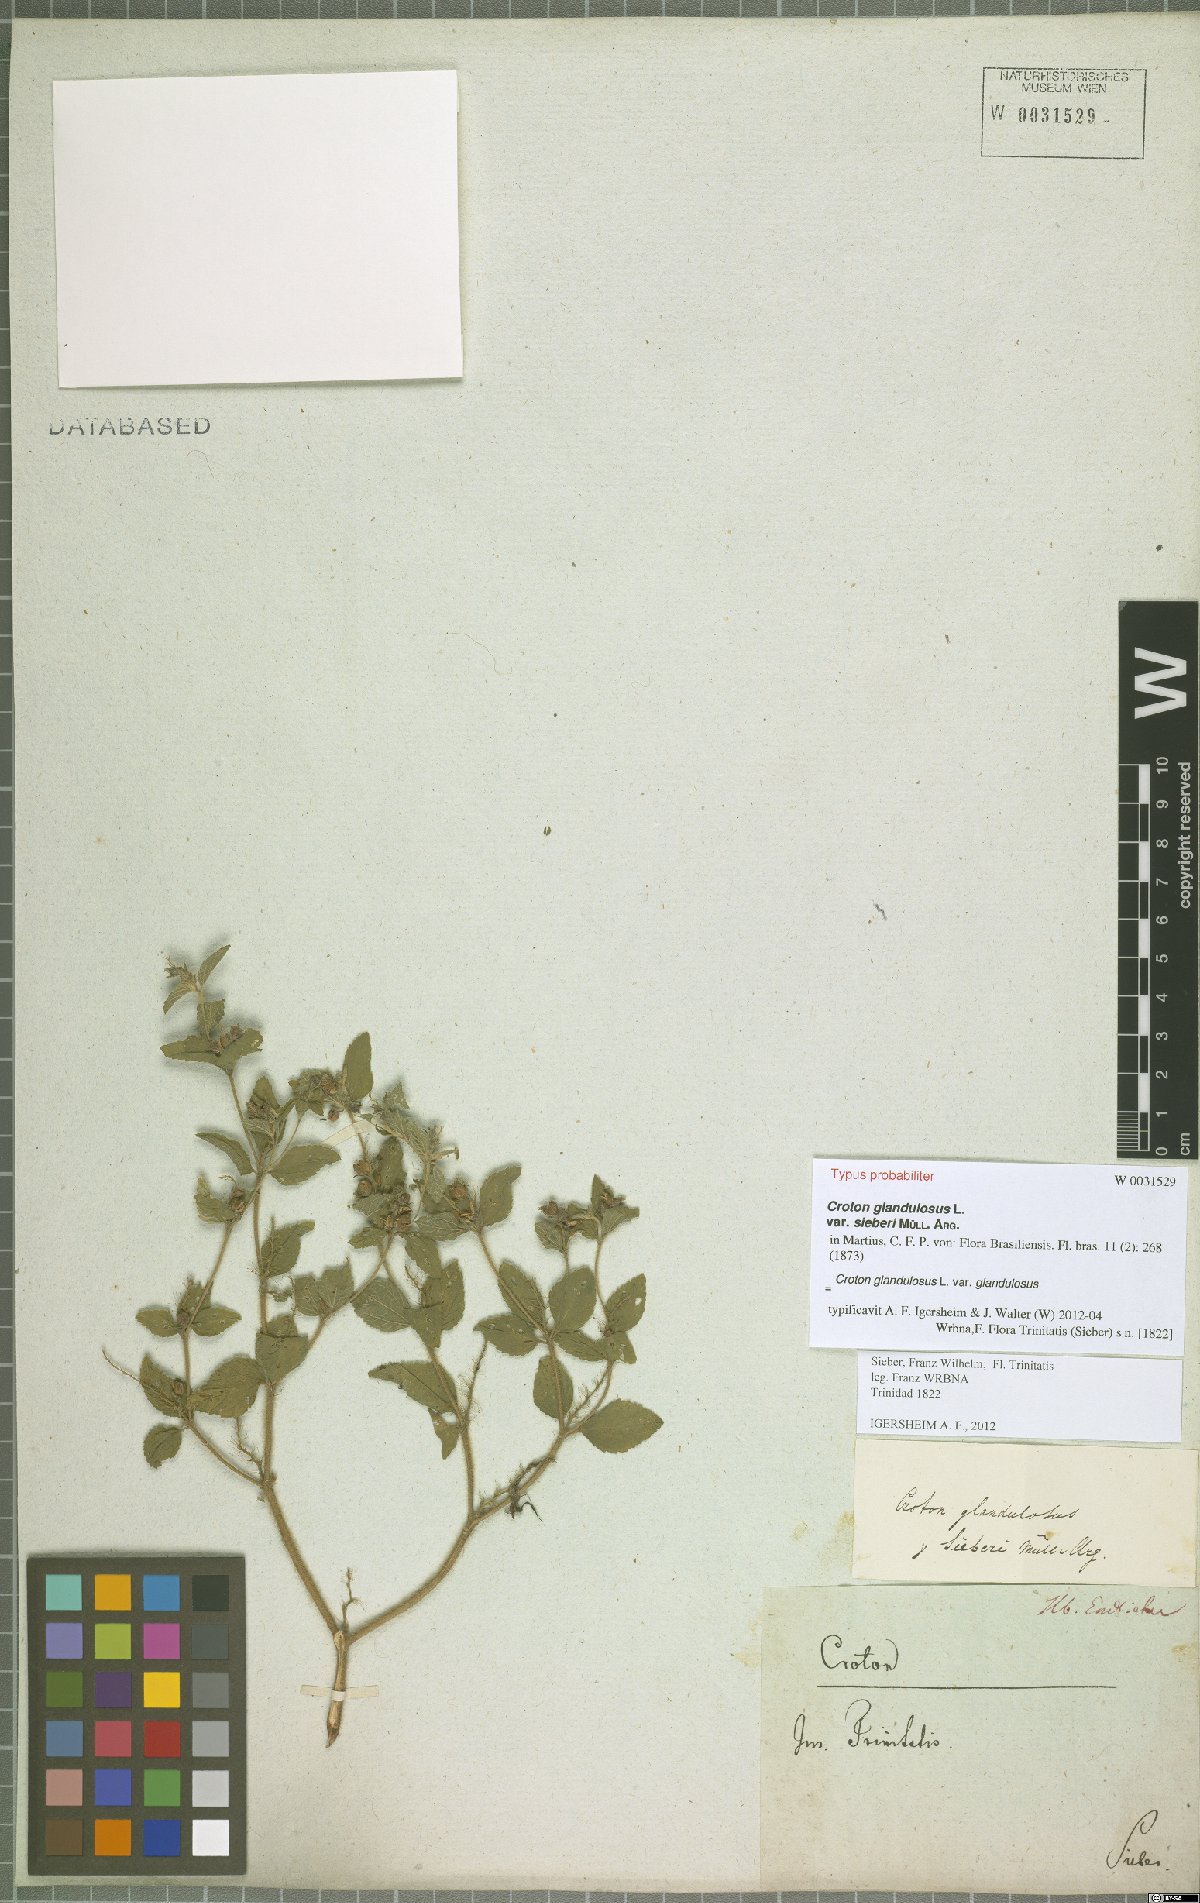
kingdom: Plantae
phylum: Tracheophyta
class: Magnoliopsida
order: Malpighiales
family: Euphorbiaceae
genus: Croton
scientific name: Croton glandulosus
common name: Tropic croton
